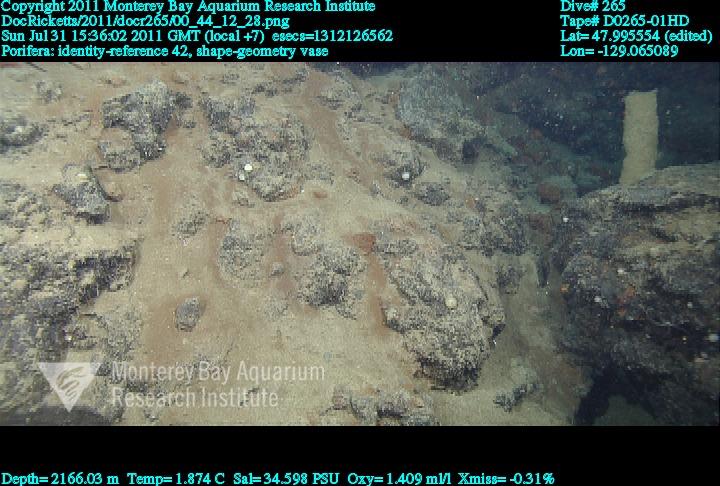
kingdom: Animalia
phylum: Porifera
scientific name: Porifera
